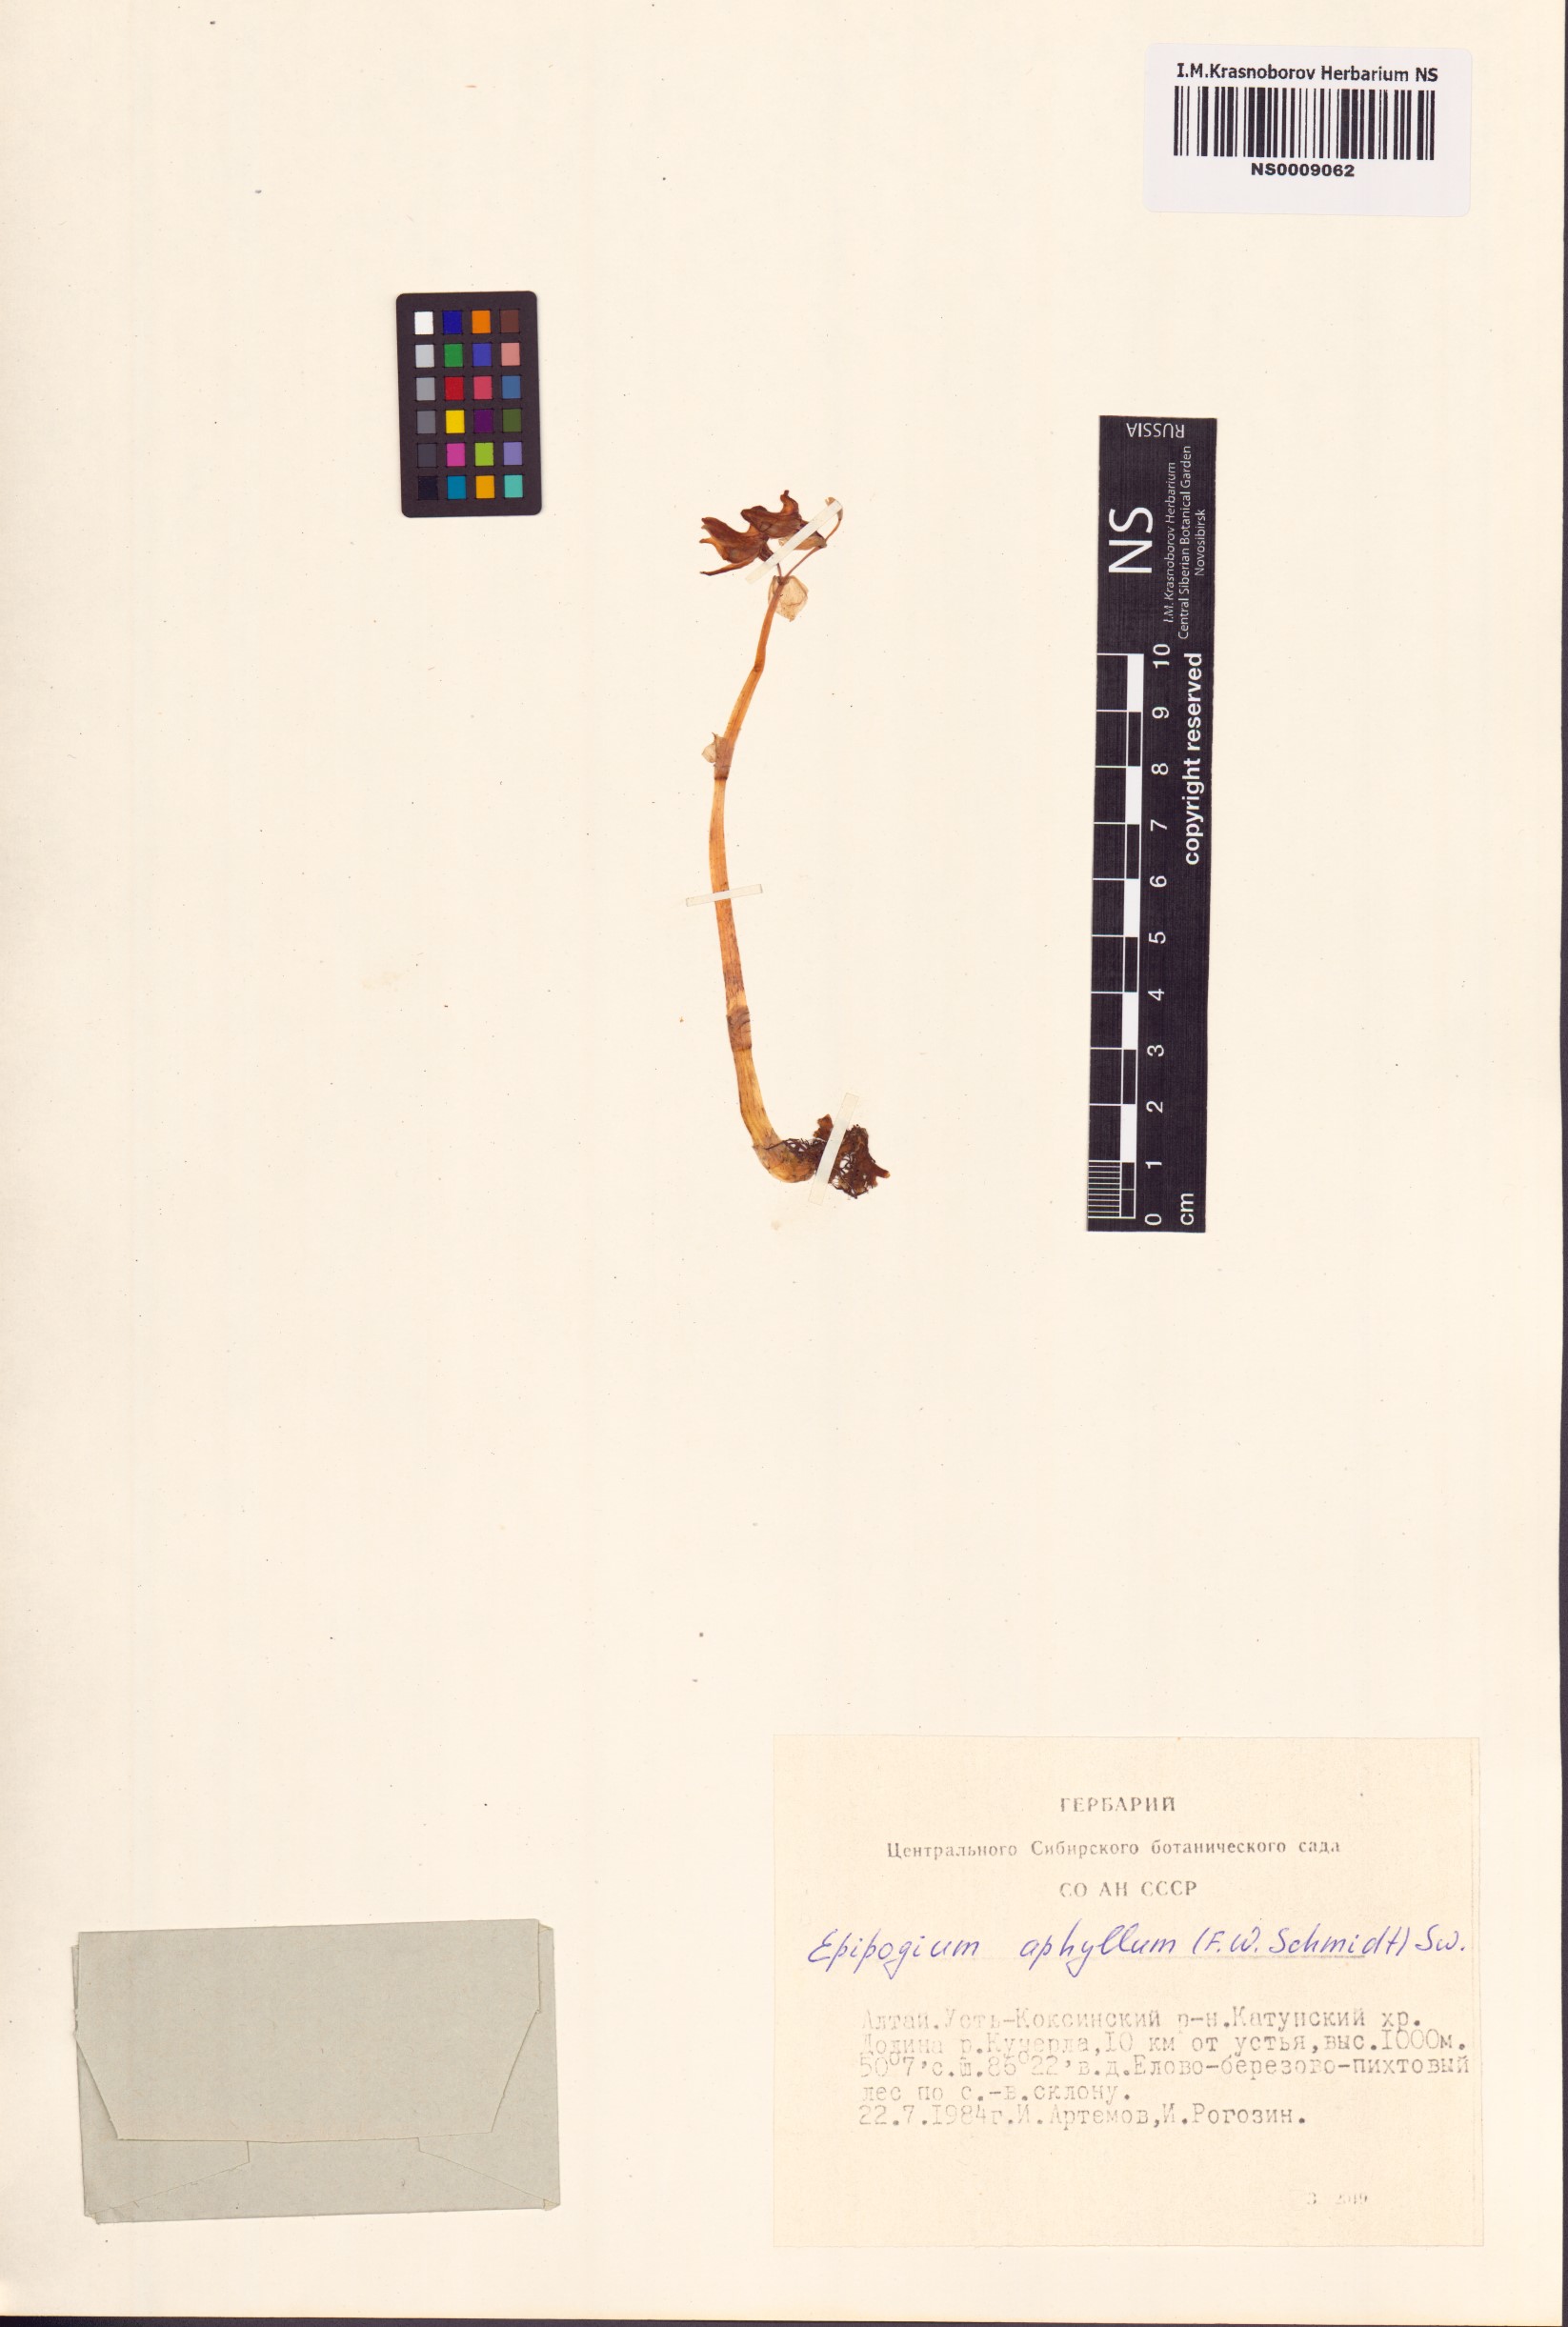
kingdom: Plantae
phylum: Tracheophyta
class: Liliopsida
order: Asparagales
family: Orchidaceae
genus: Epipogium
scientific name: Epipogium aphyllum
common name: Ghost orchid
